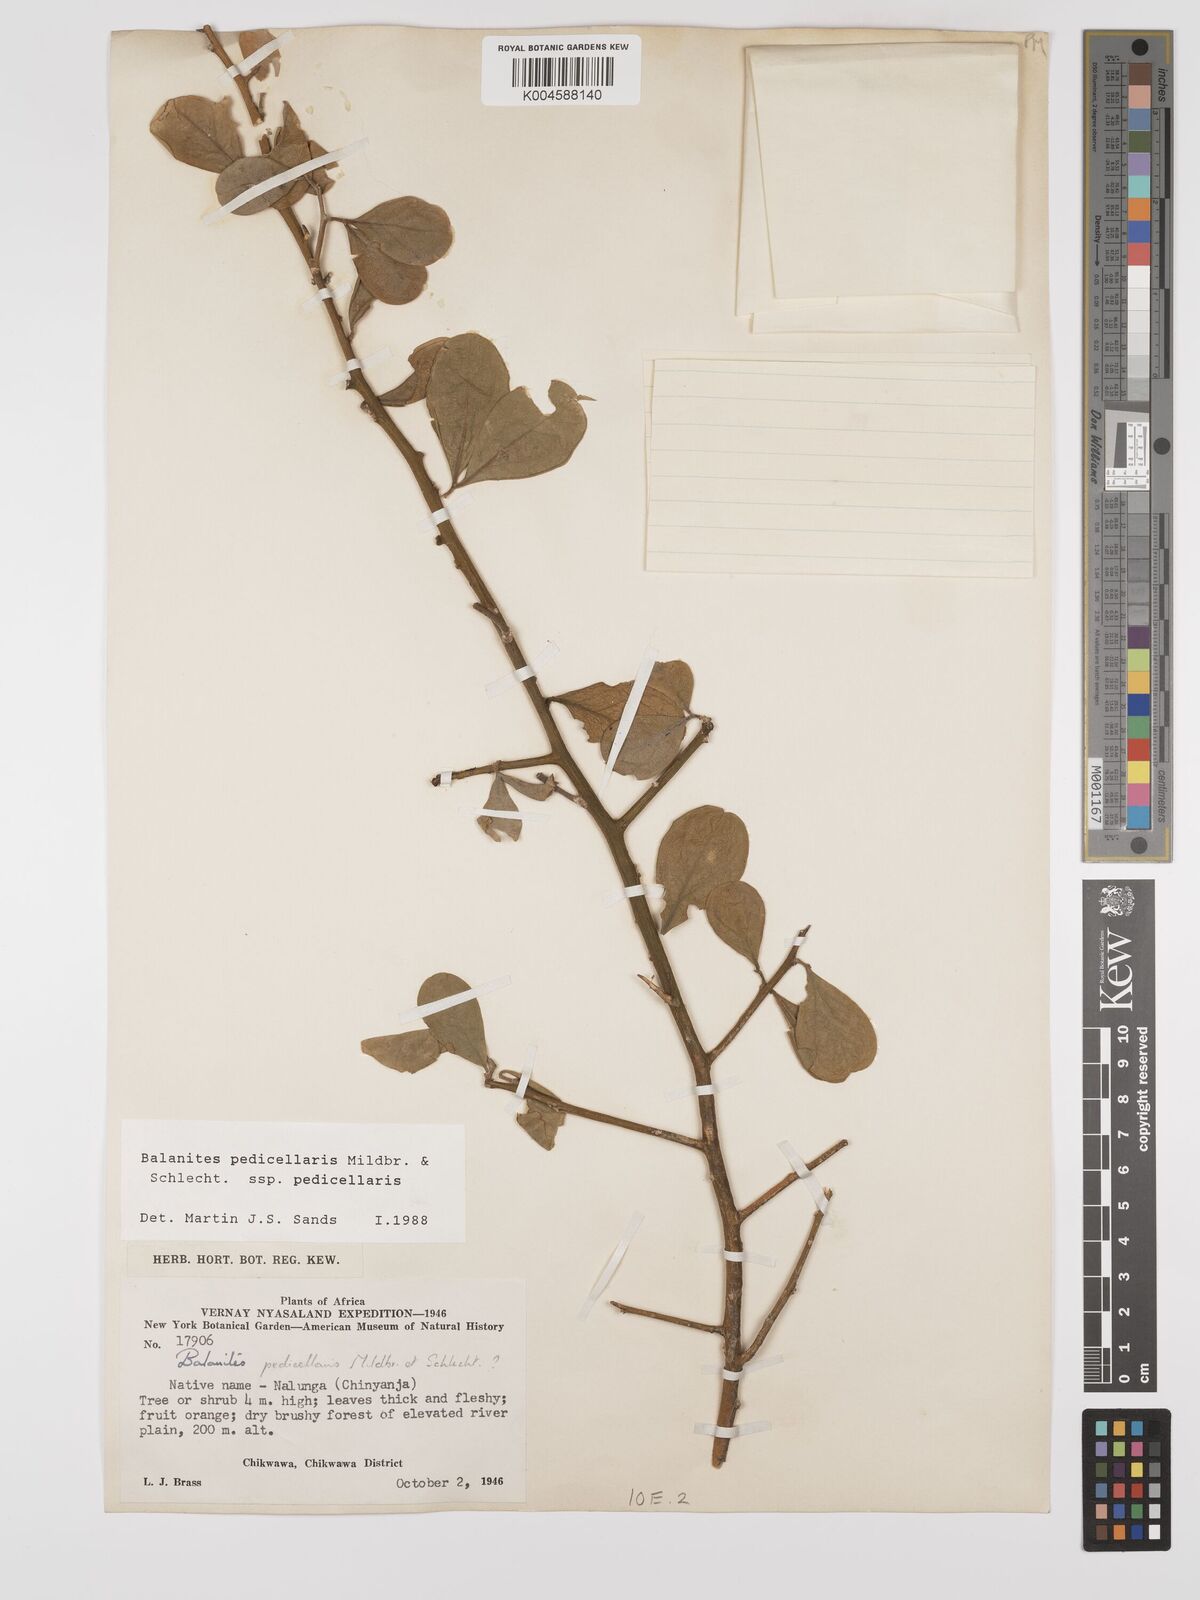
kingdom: Plantae
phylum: Tracheophyta
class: Magnoliopsida
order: Zygophyllales
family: Zygophyllaceae
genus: Balanites
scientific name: Balanites pedicellaris
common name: Small green-thorn
